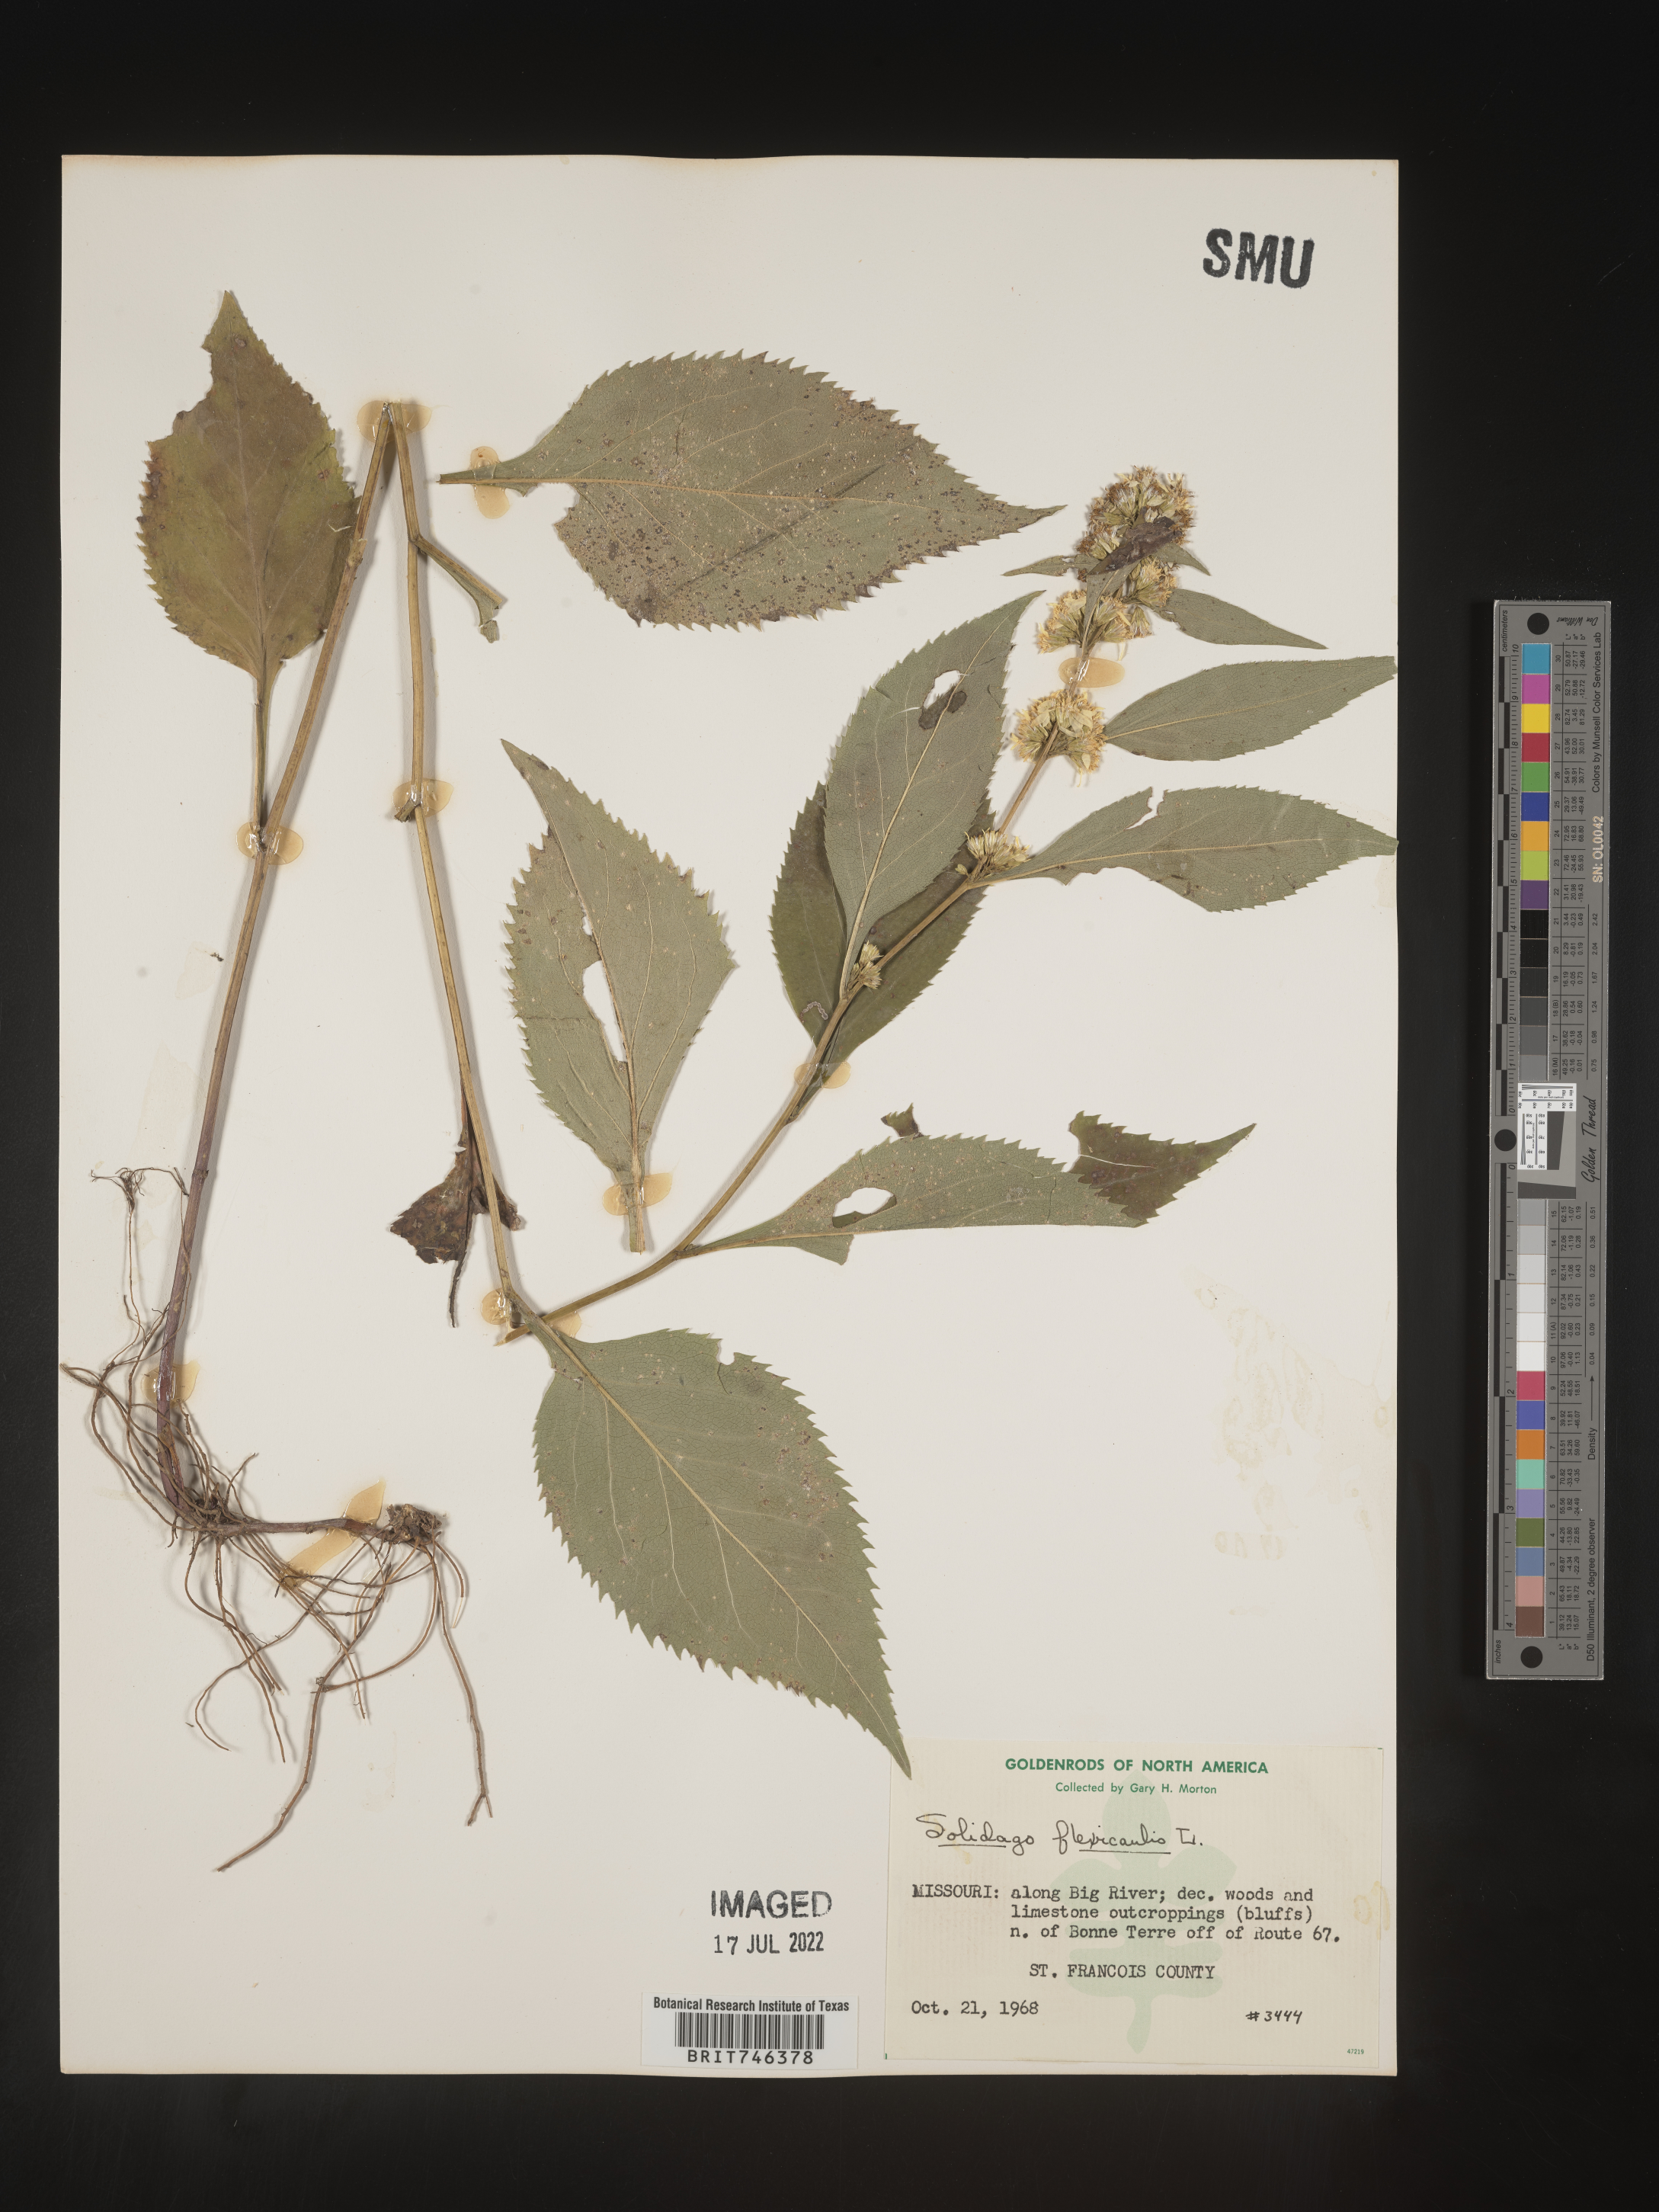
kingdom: Plantae
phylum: Tracheophyta
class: Magnoliopsida
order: Asterales
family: Asteraceae
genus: Solidago
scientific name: Solidago flexicaulis
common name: Zig-zag goldenrod
